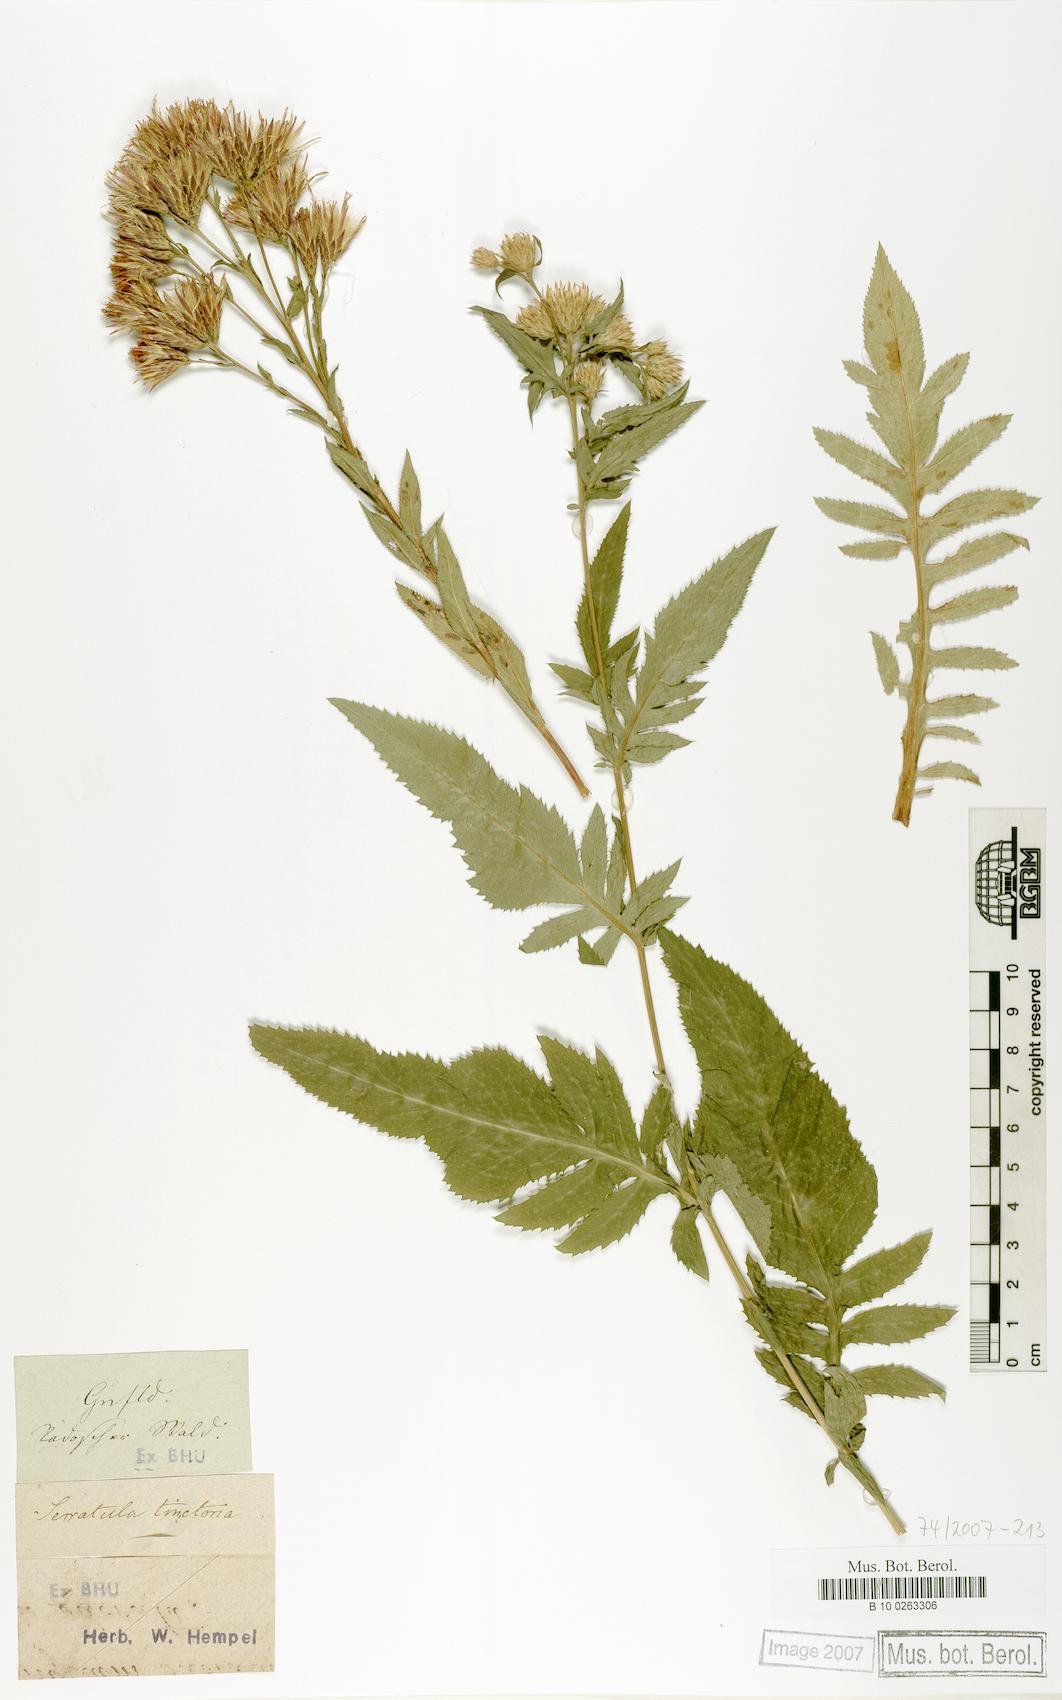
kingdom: Plantae
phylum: Tracheophyta
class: Magnoliopsida
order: Asterales
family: Asteraceae
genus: Serratula
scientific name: Serratula tinctoria
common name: Saw-wort
